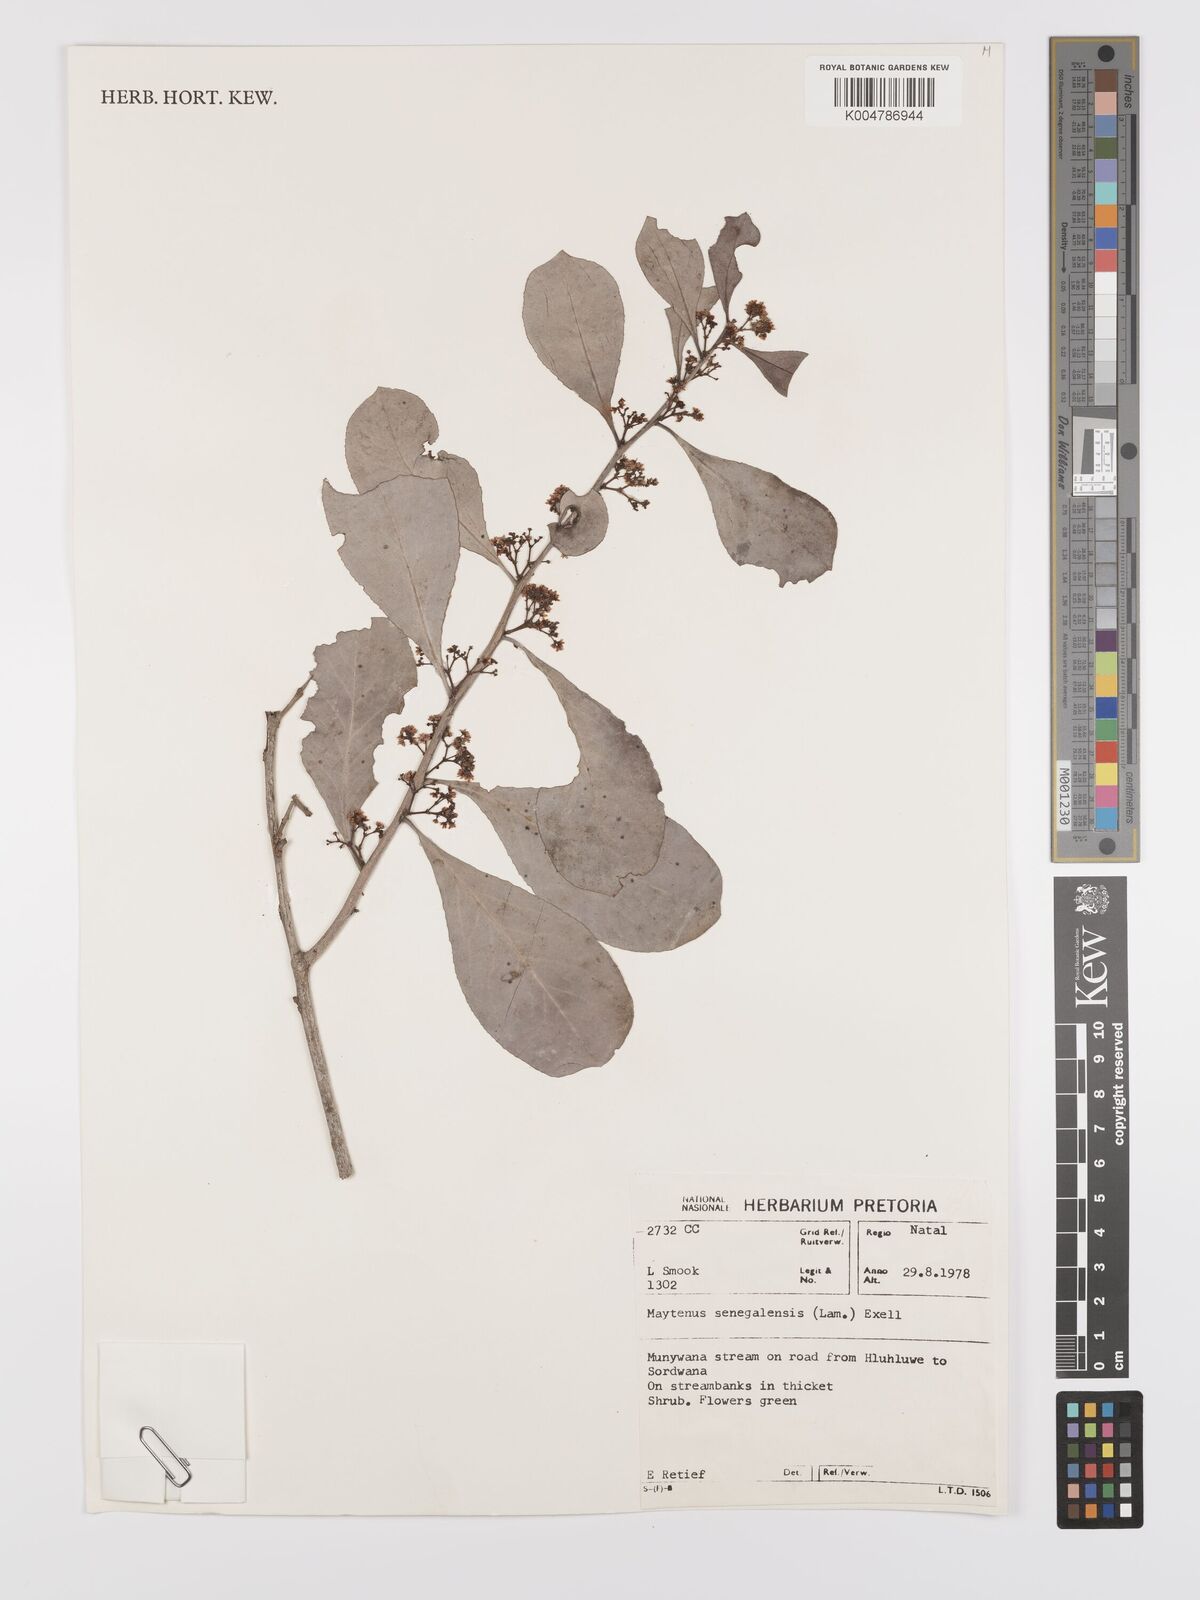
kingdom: Plantae
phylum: Tracheophyta
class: Magnoliopsida
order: Celastrales
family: Celastraceae
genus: Gymnosporia
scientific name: Gymnosporia senegalensis
